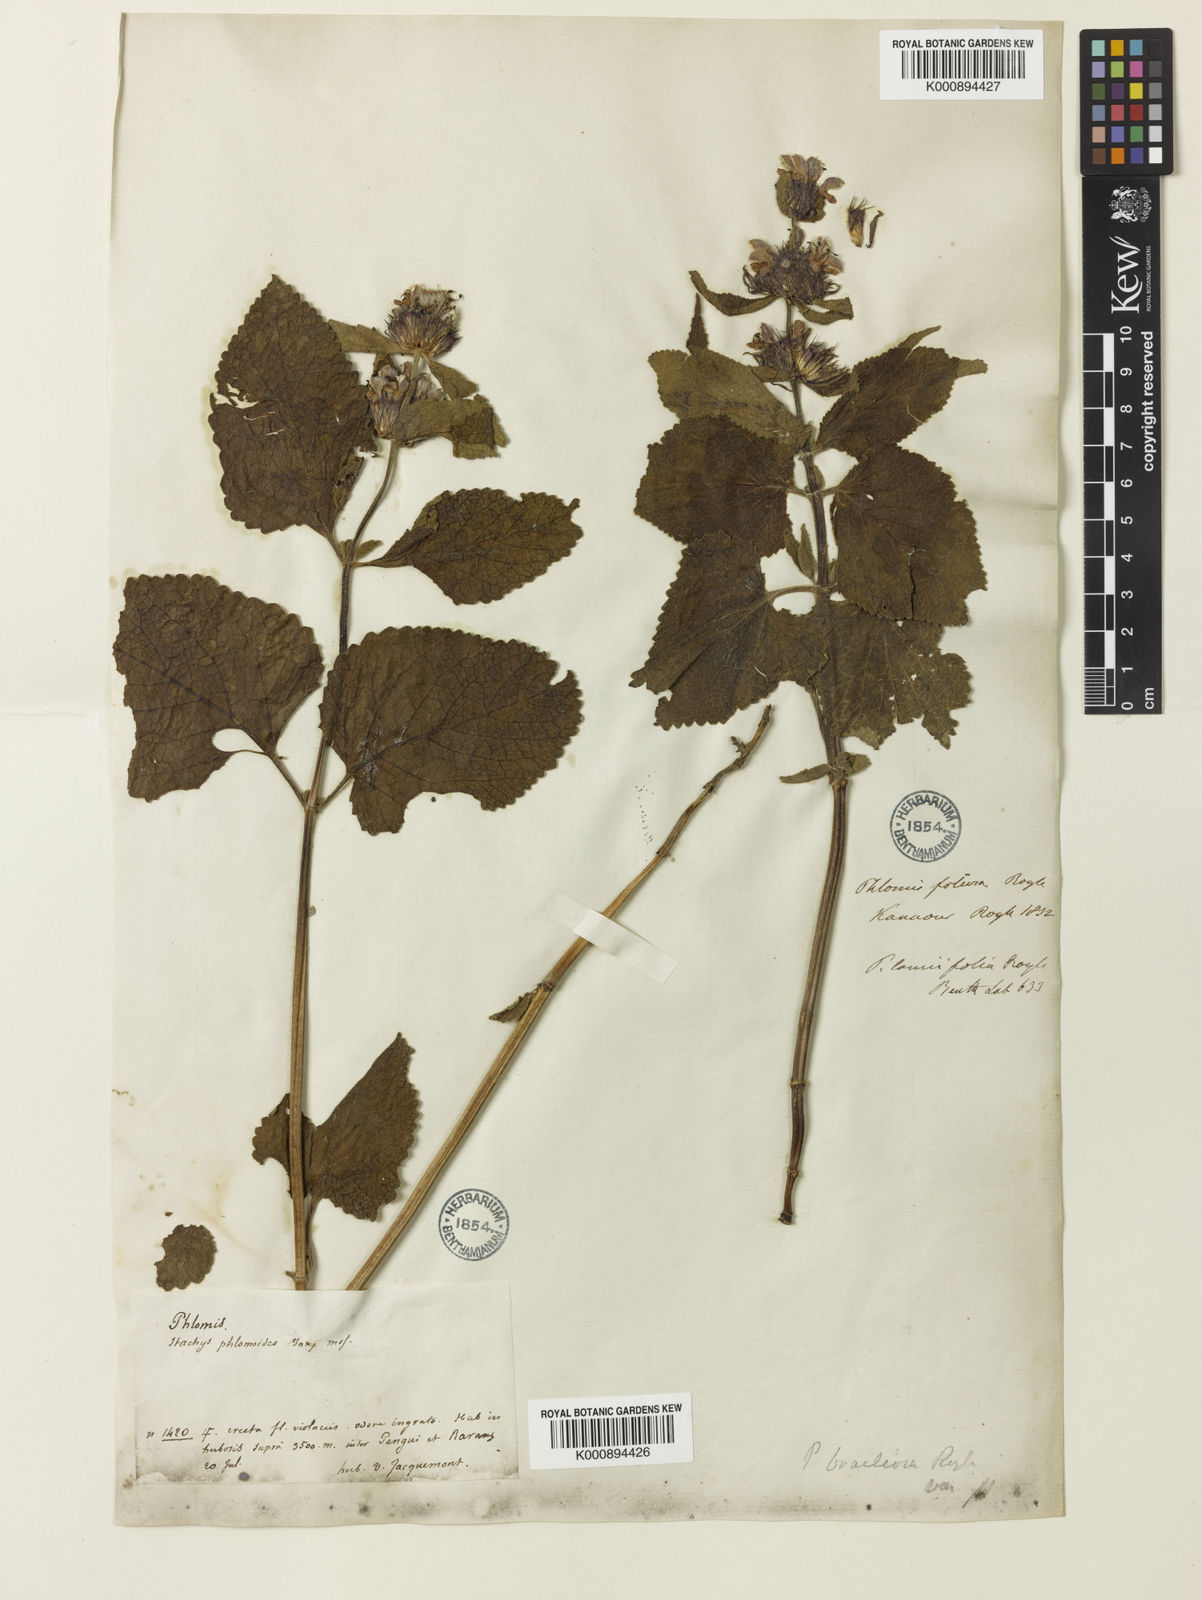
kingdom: Plantae
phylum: Tracheophyta
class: Magnoliopsida
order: Lamiales
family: Lamiaceae
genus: Phlomoides
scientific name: Phlomoides bracteosa
